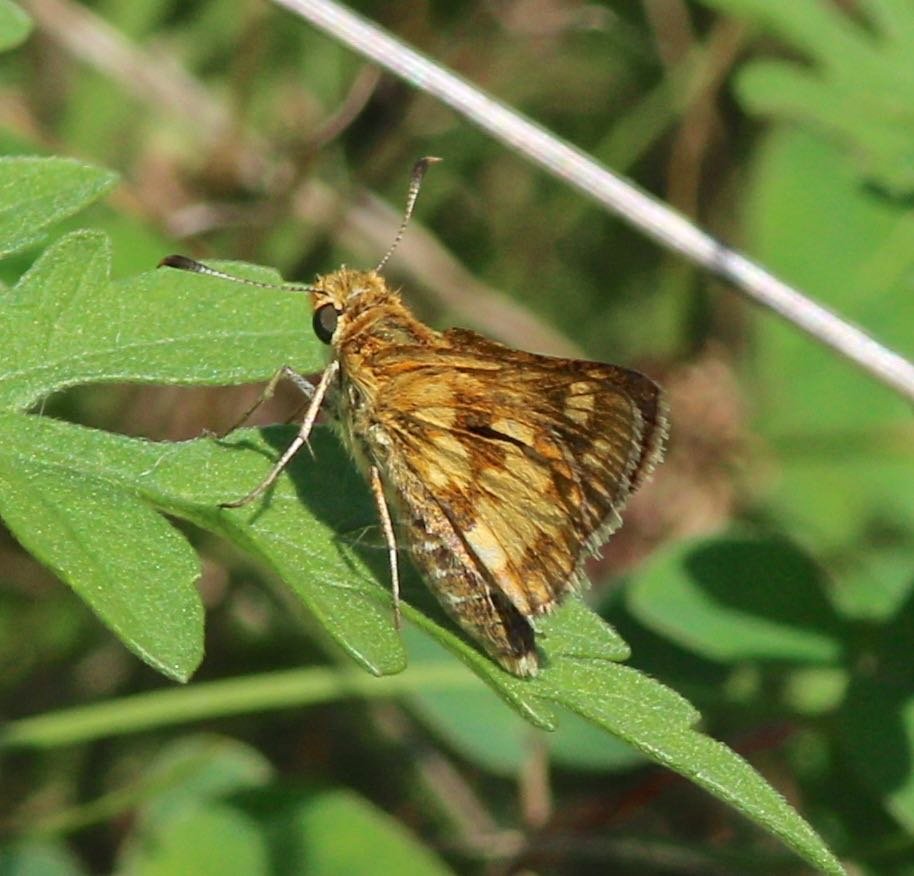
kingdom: Animalia
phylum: Arthropoda
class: Insecta
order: Lepidoptera
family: Hesperiidae
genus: Polites
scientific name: Polites coras
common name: Peck's Skipper
